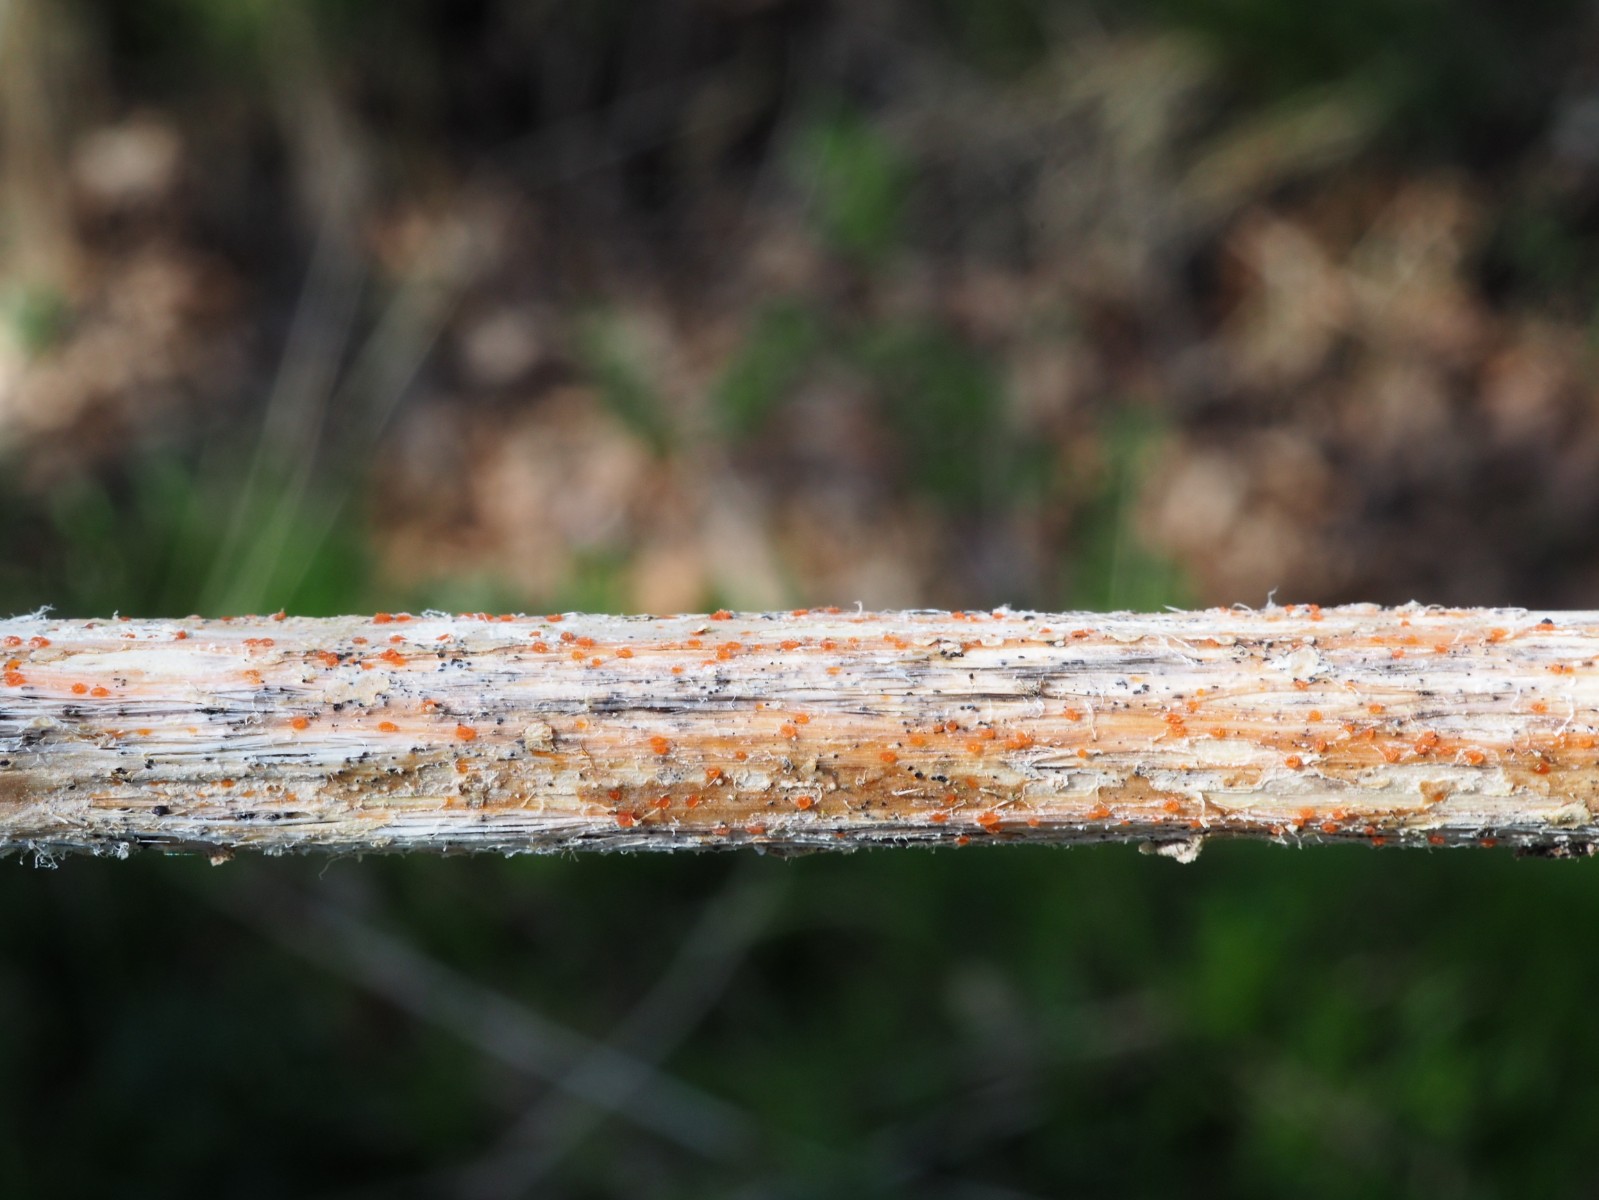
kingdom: Fungi
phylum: Ascomycota
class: Leotiomycetes
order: Helotiales
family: Calloriaceae
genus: Calloria
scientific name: Calloria urticae
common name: nælde-orangeskive
